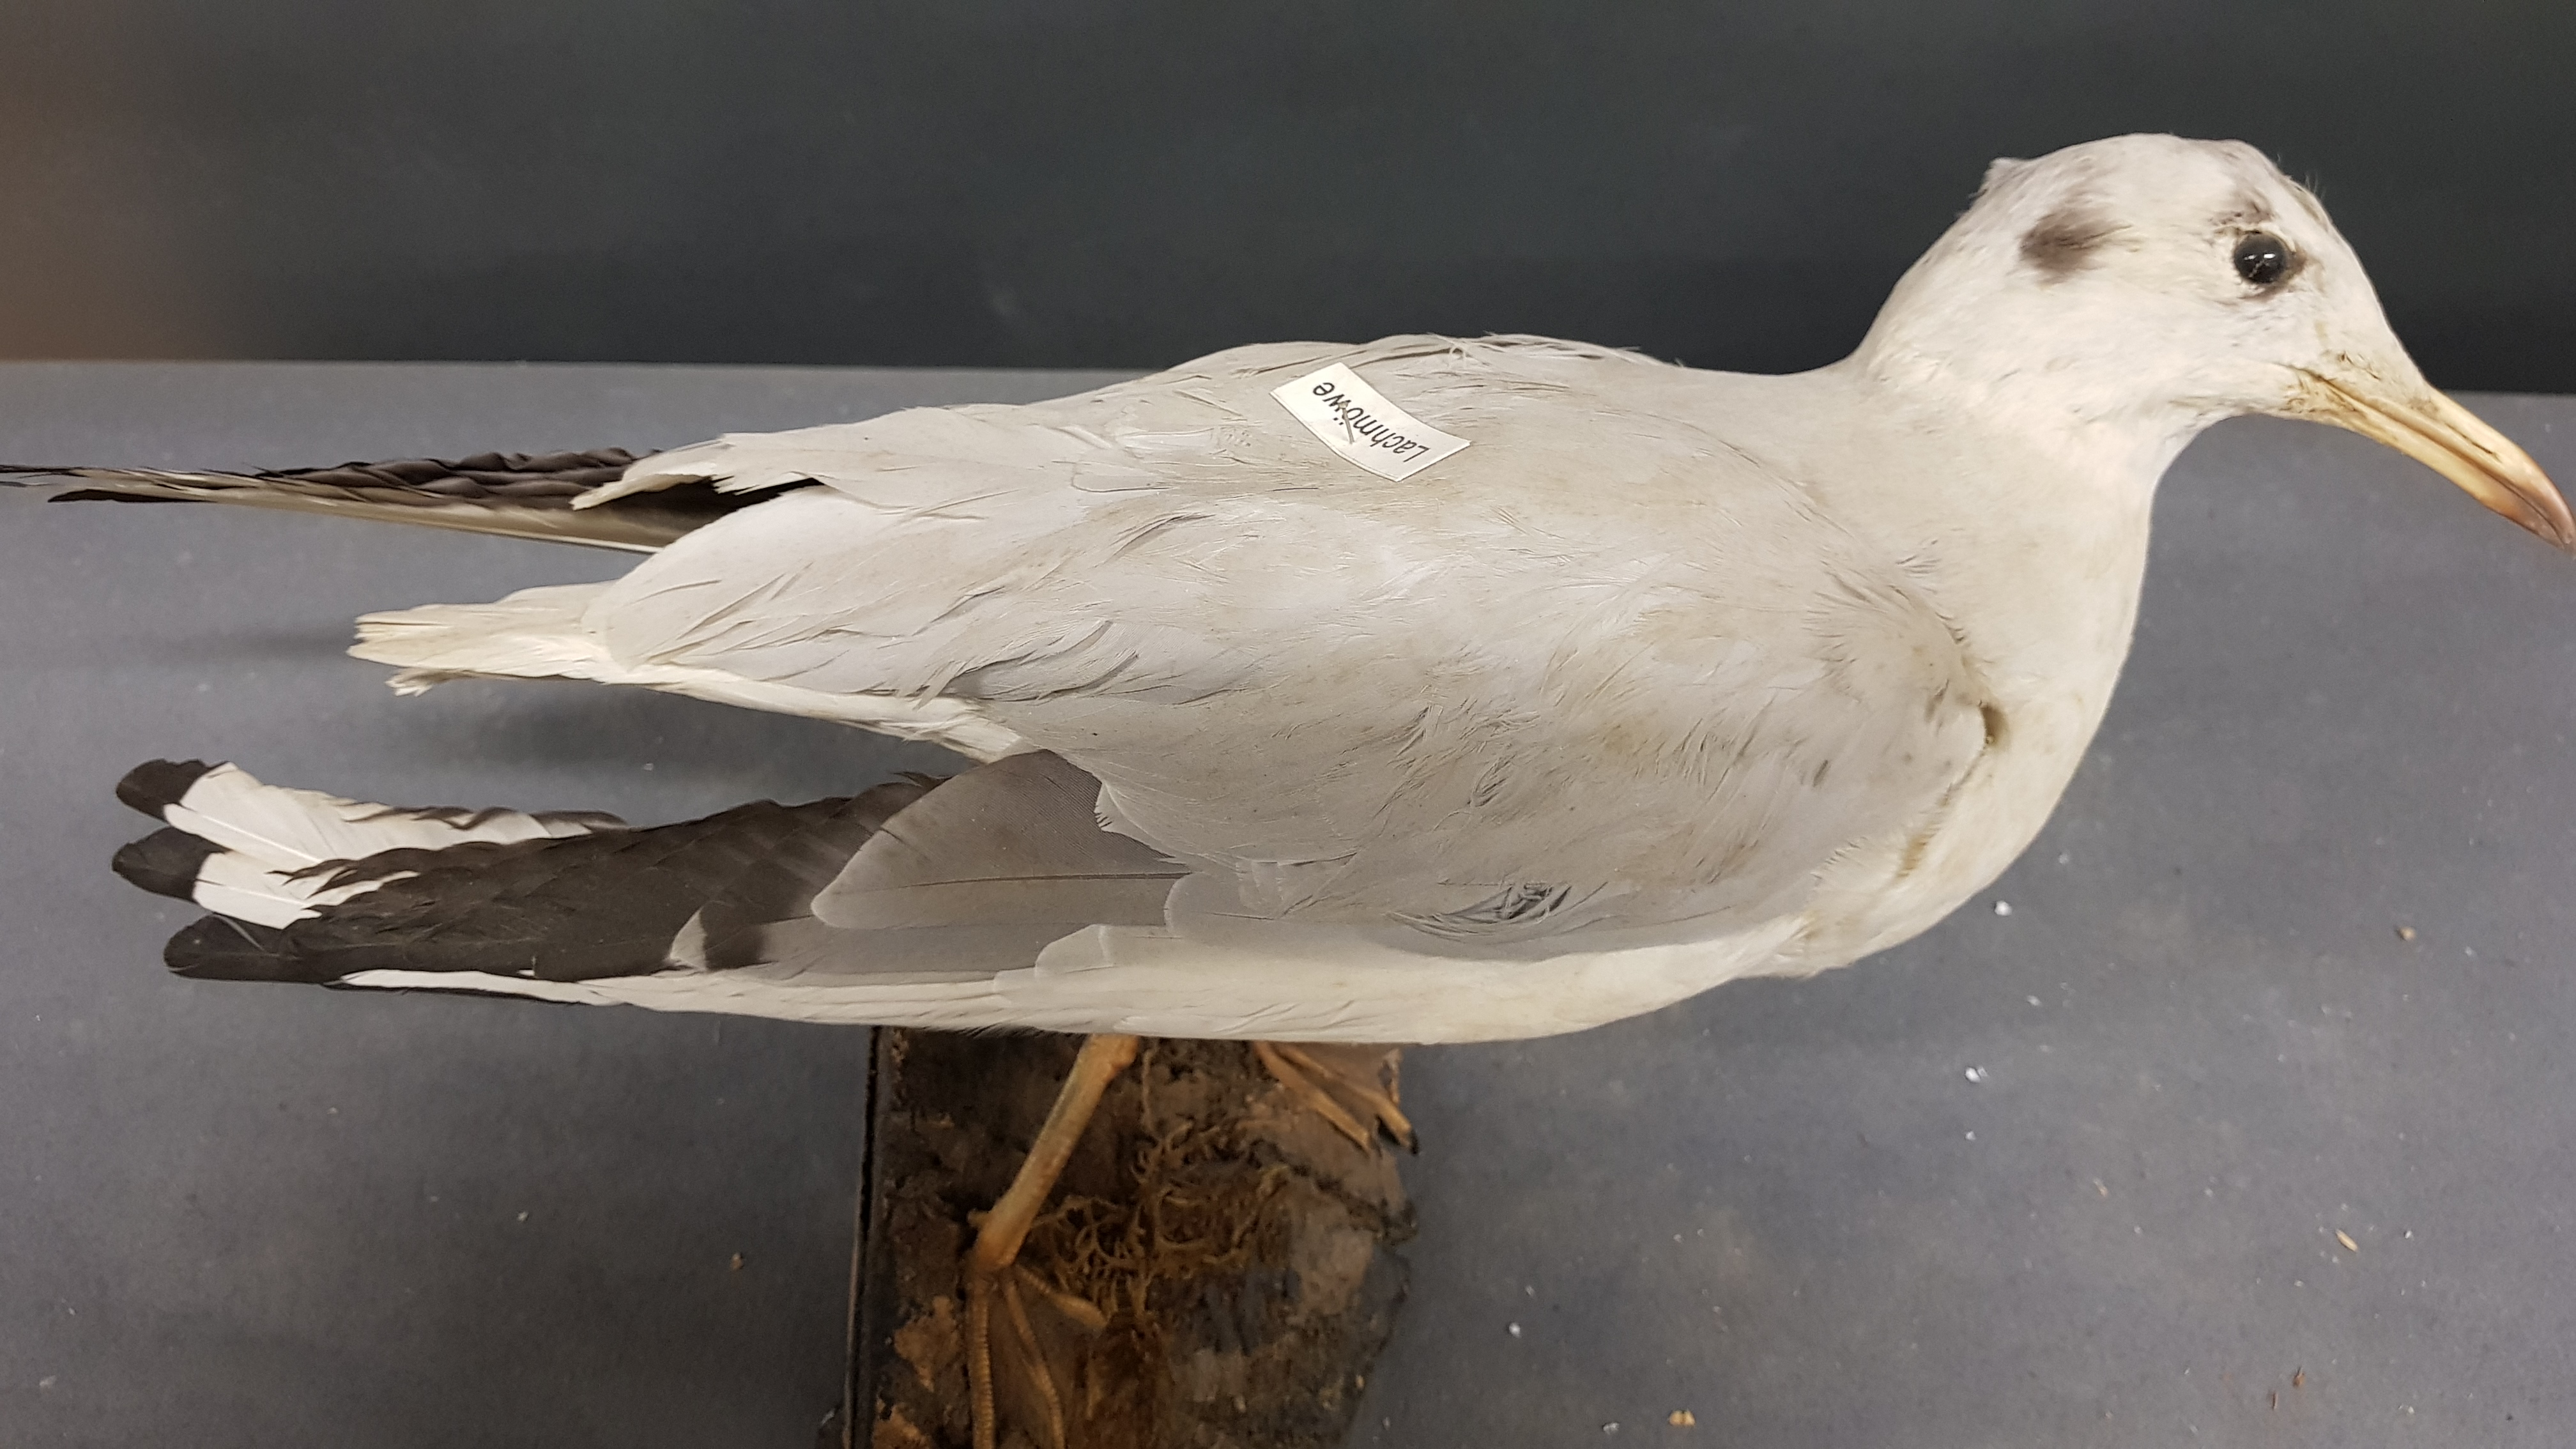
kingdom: Animalia
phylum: Chordata
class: Aves
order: Charadriiformes
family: Laridae
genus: Chroicocephalus
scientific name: Chroicocephalus ridibundus
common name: Black-headed gull
